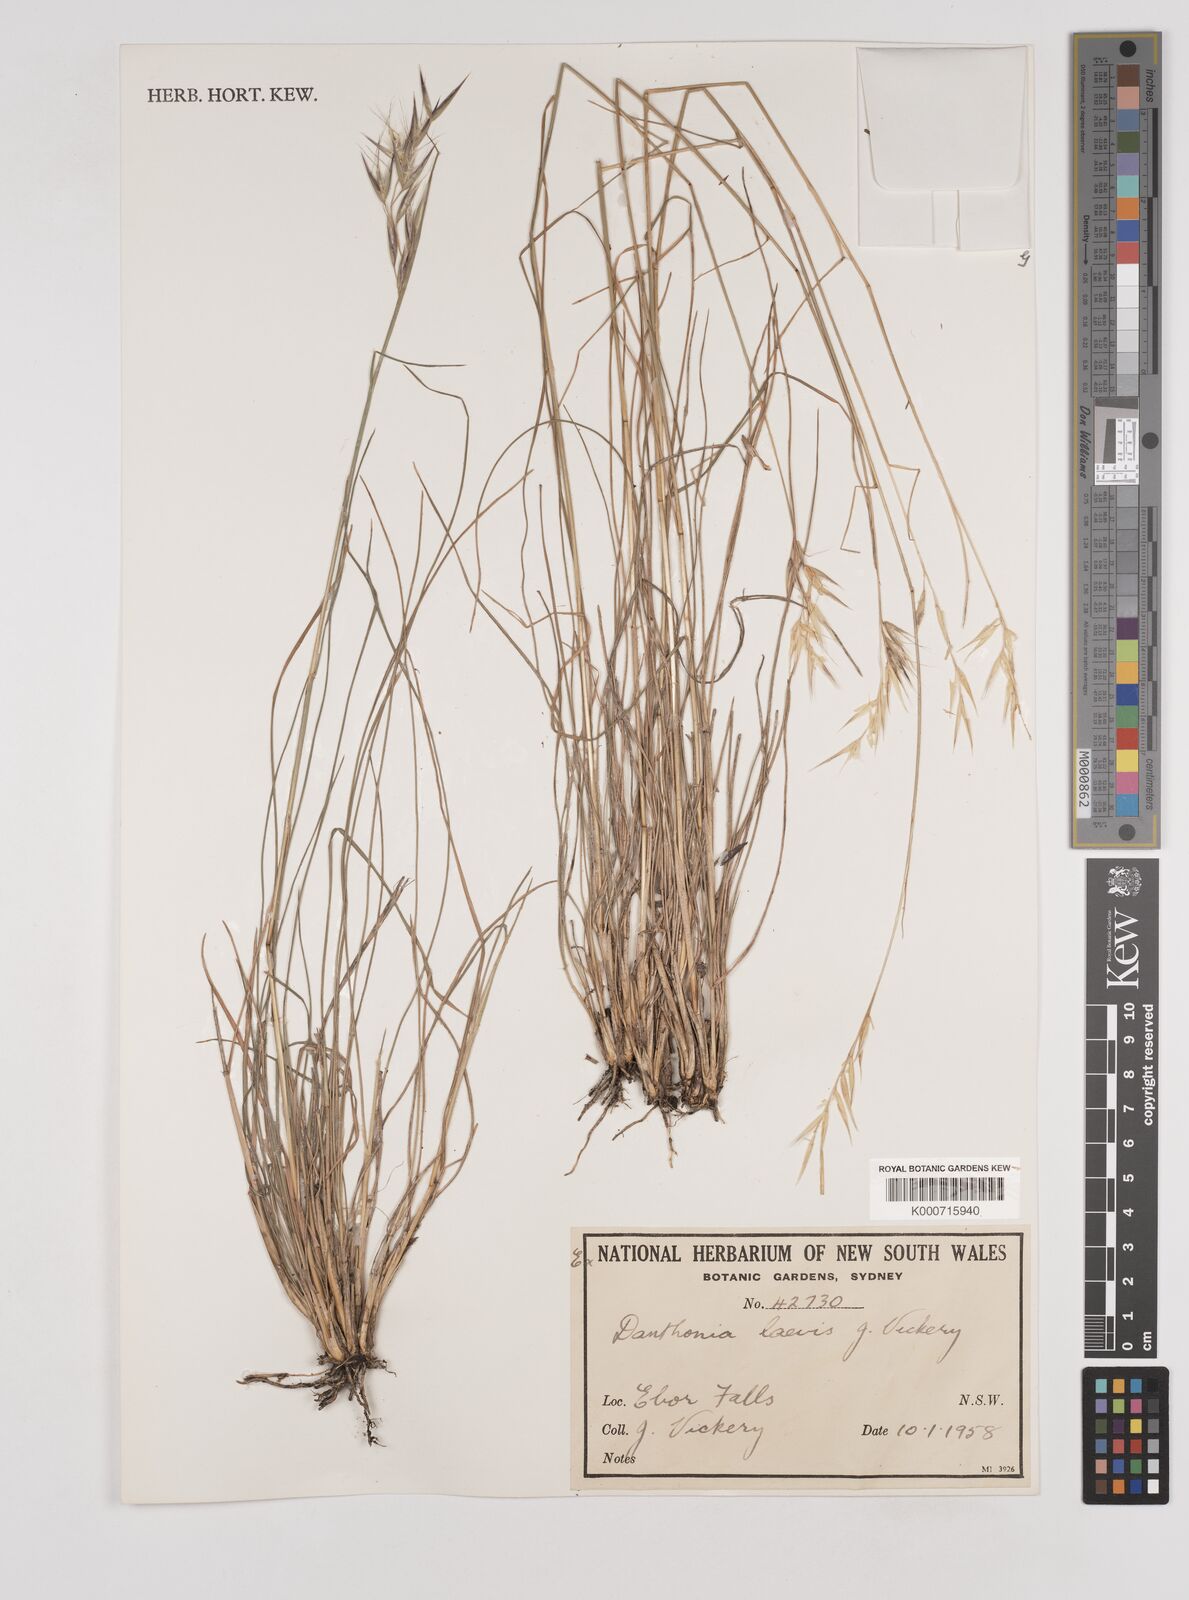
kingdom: Plantae
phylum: Tracheophyta
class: Liliopsida
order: Poales
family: Poaceae
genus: Rytidosperma
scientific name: Rytidosperma laeve
